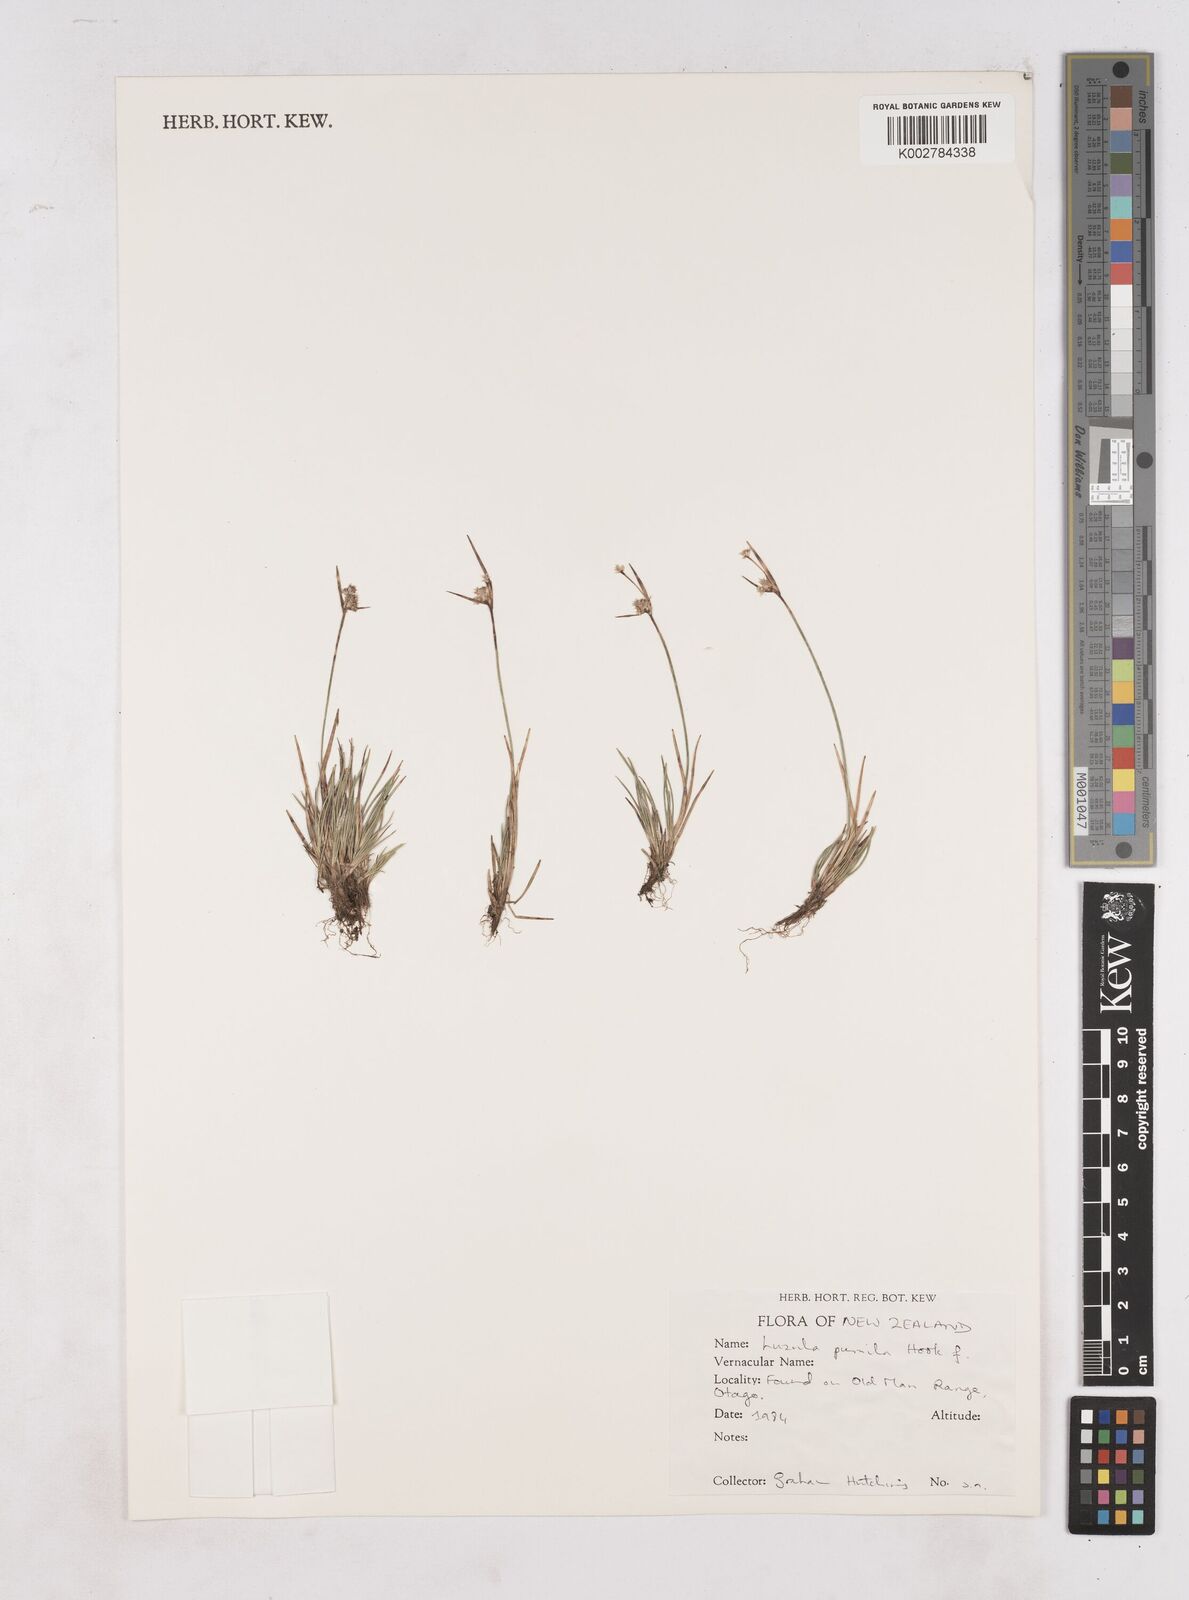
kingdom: Plantae
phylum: Tracheophyta
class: Liliopsida
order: Poales
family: Juncaceae
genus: Luzula
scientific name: Luzula pumila
